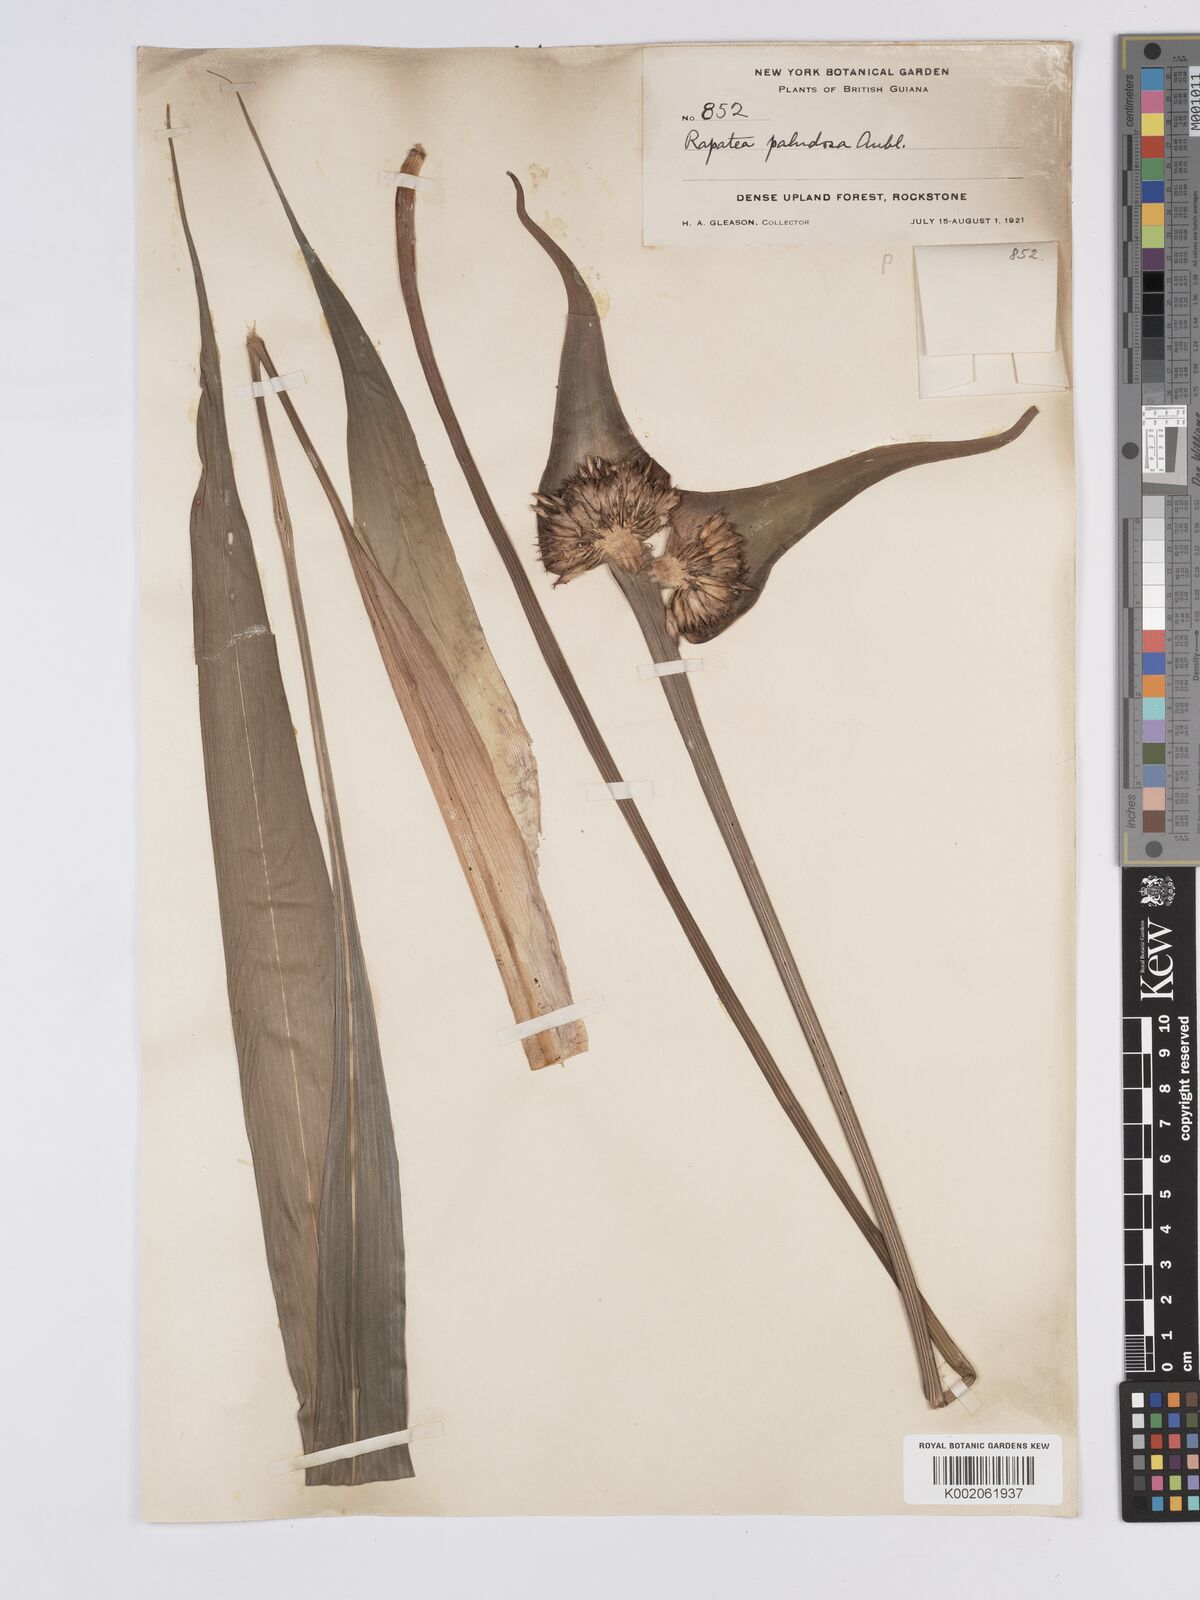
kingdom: Plantae
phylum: Tracheophyta
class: Liliopsida
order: Poales
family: Rapateaceae
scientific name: Rapateaceae
